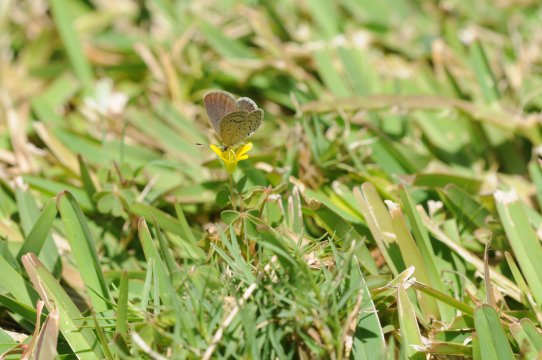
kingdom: Animalia
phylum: Arthropoda
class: Insecta
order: Lepidoptera
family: Lycaenidae
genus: Zizeeria
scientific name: Zizeeria knysna
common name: Dark Grass Blue
